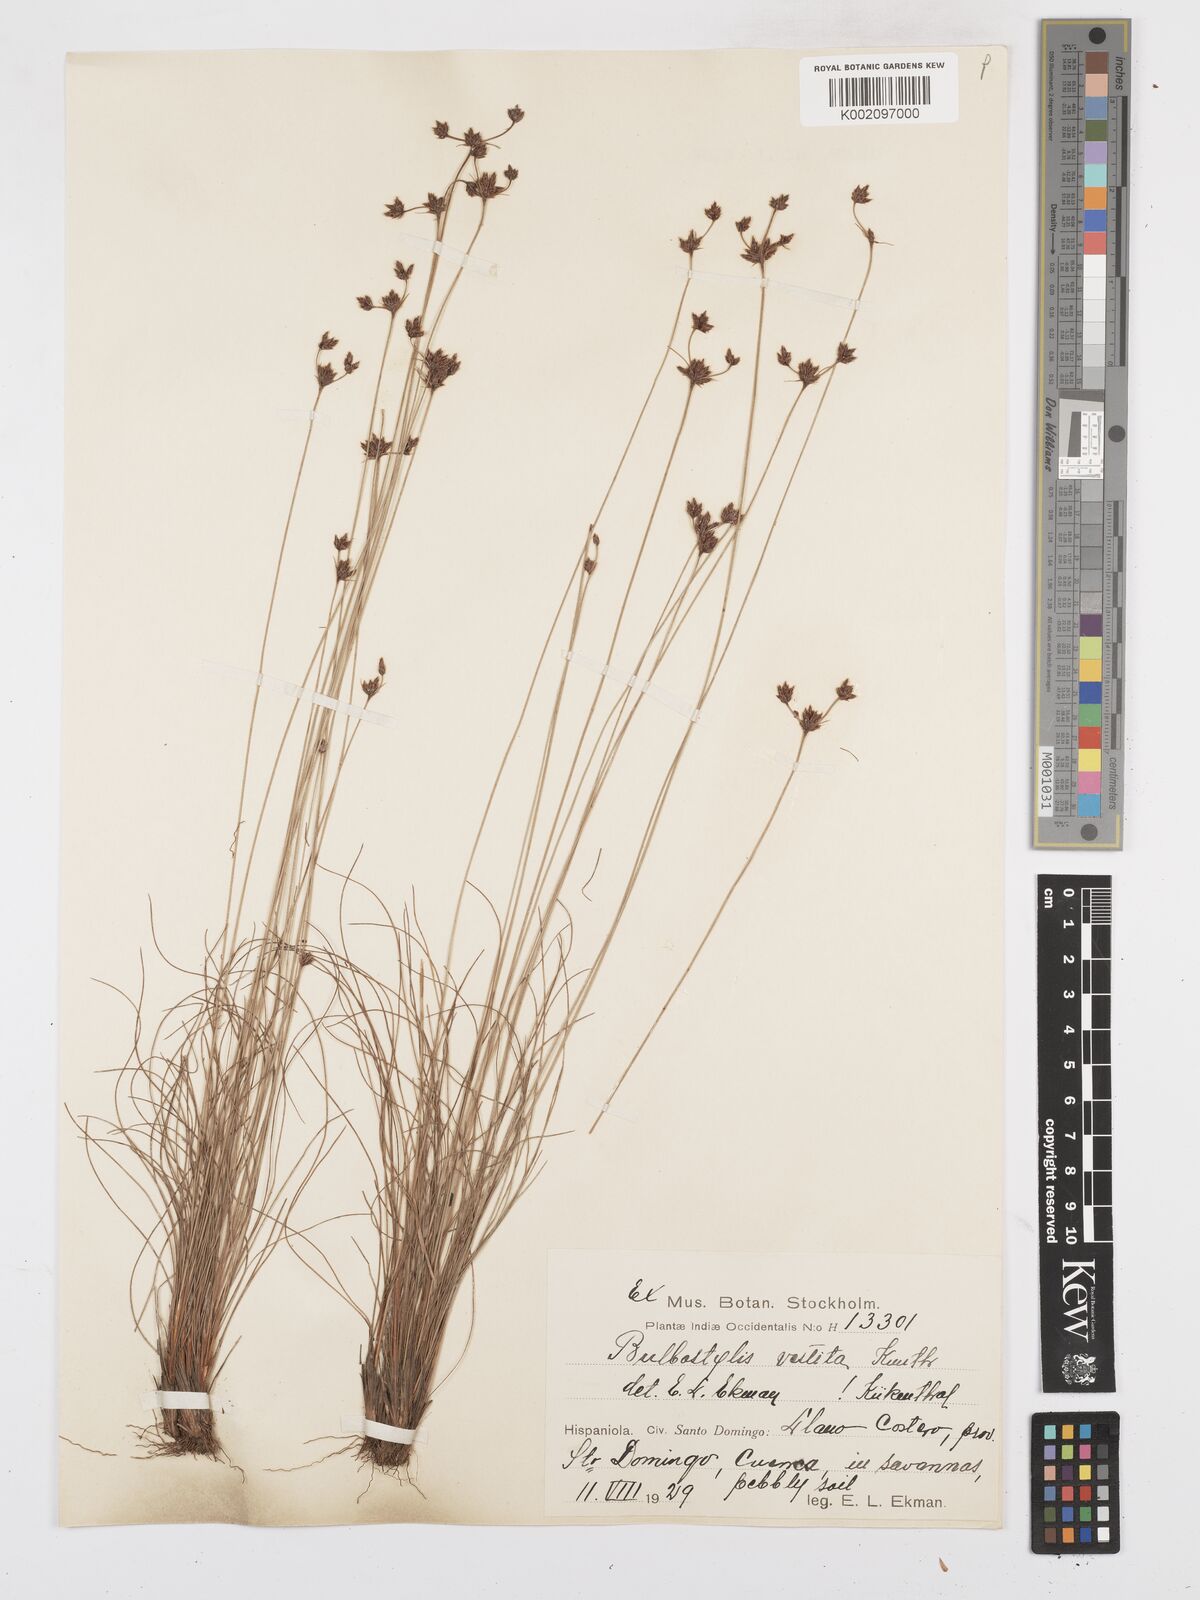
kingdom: Plantae
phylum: Tracheophyta
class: Liliopsida
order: Poales
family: Cyperaceae
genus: Bulbostylis
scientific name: Bulbostylis vestita
